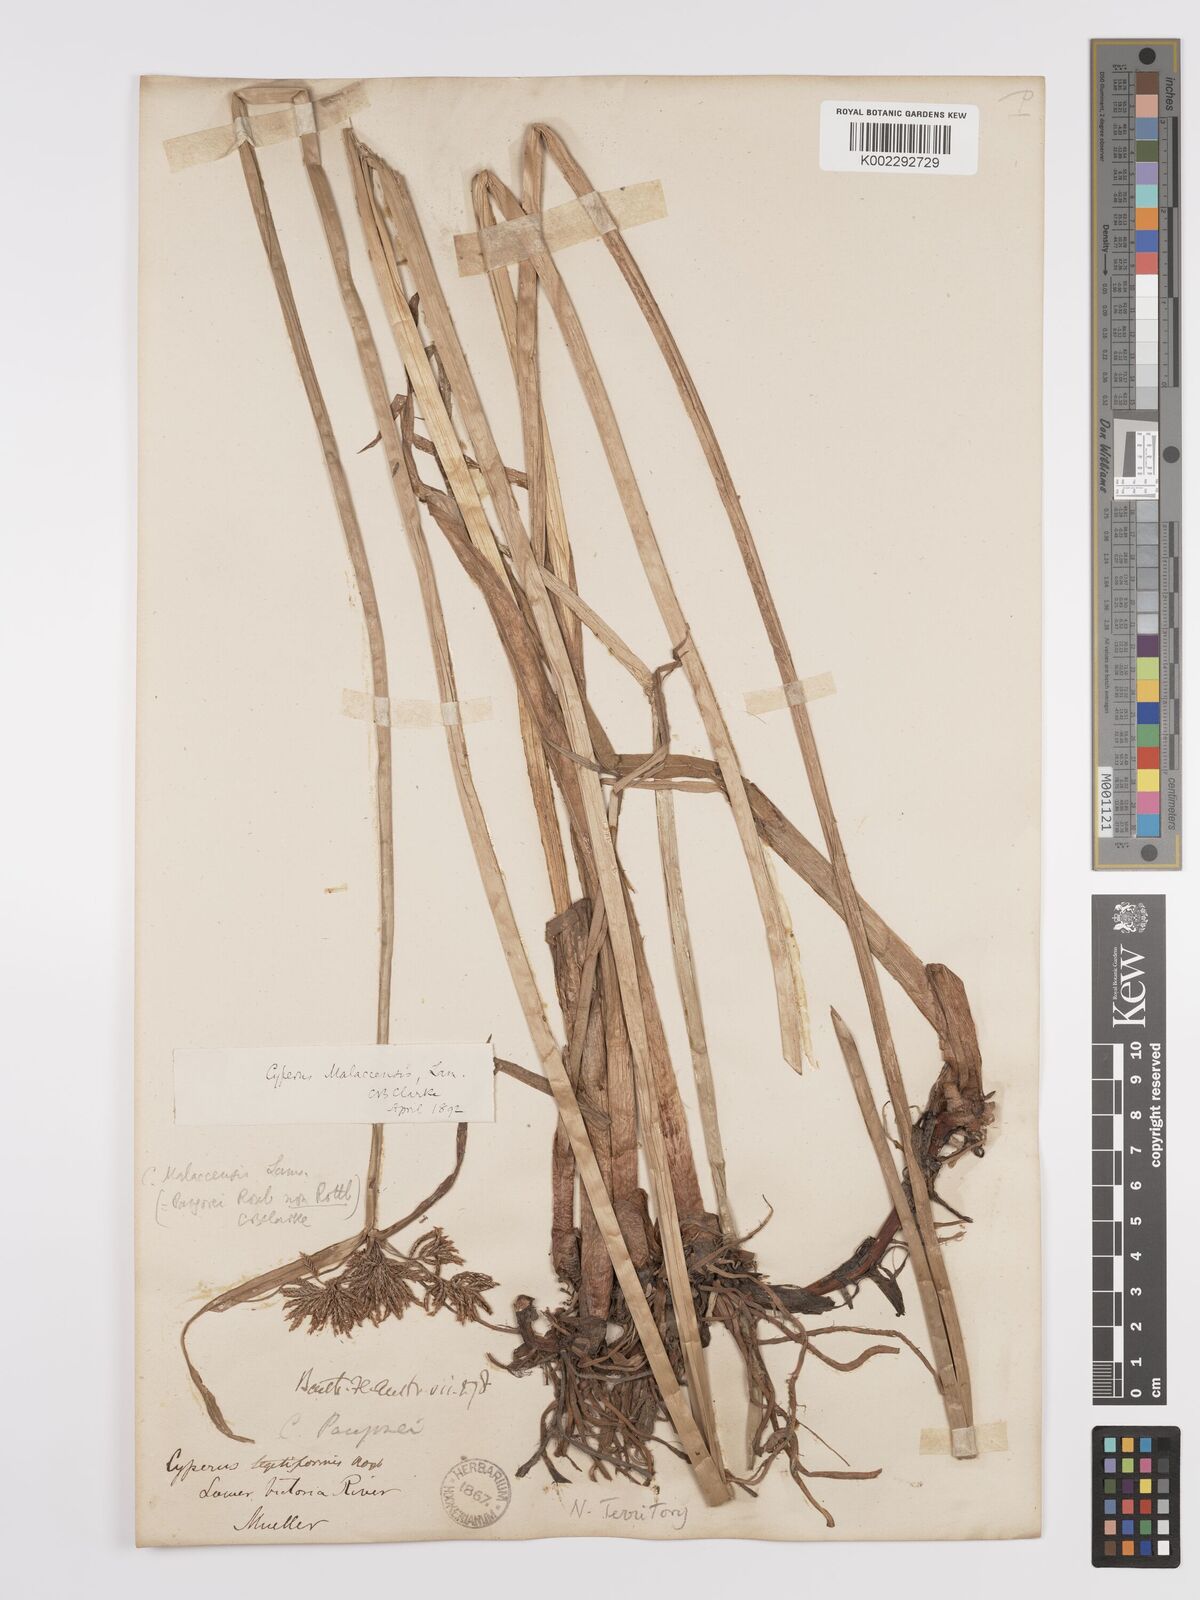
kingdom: Plantae
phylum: Tracheophyta
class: Liliopsida
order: Poales
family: Cyperaceae
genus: Cyperus
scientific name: Cyperus malaccensis
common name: Shichito matgrass
